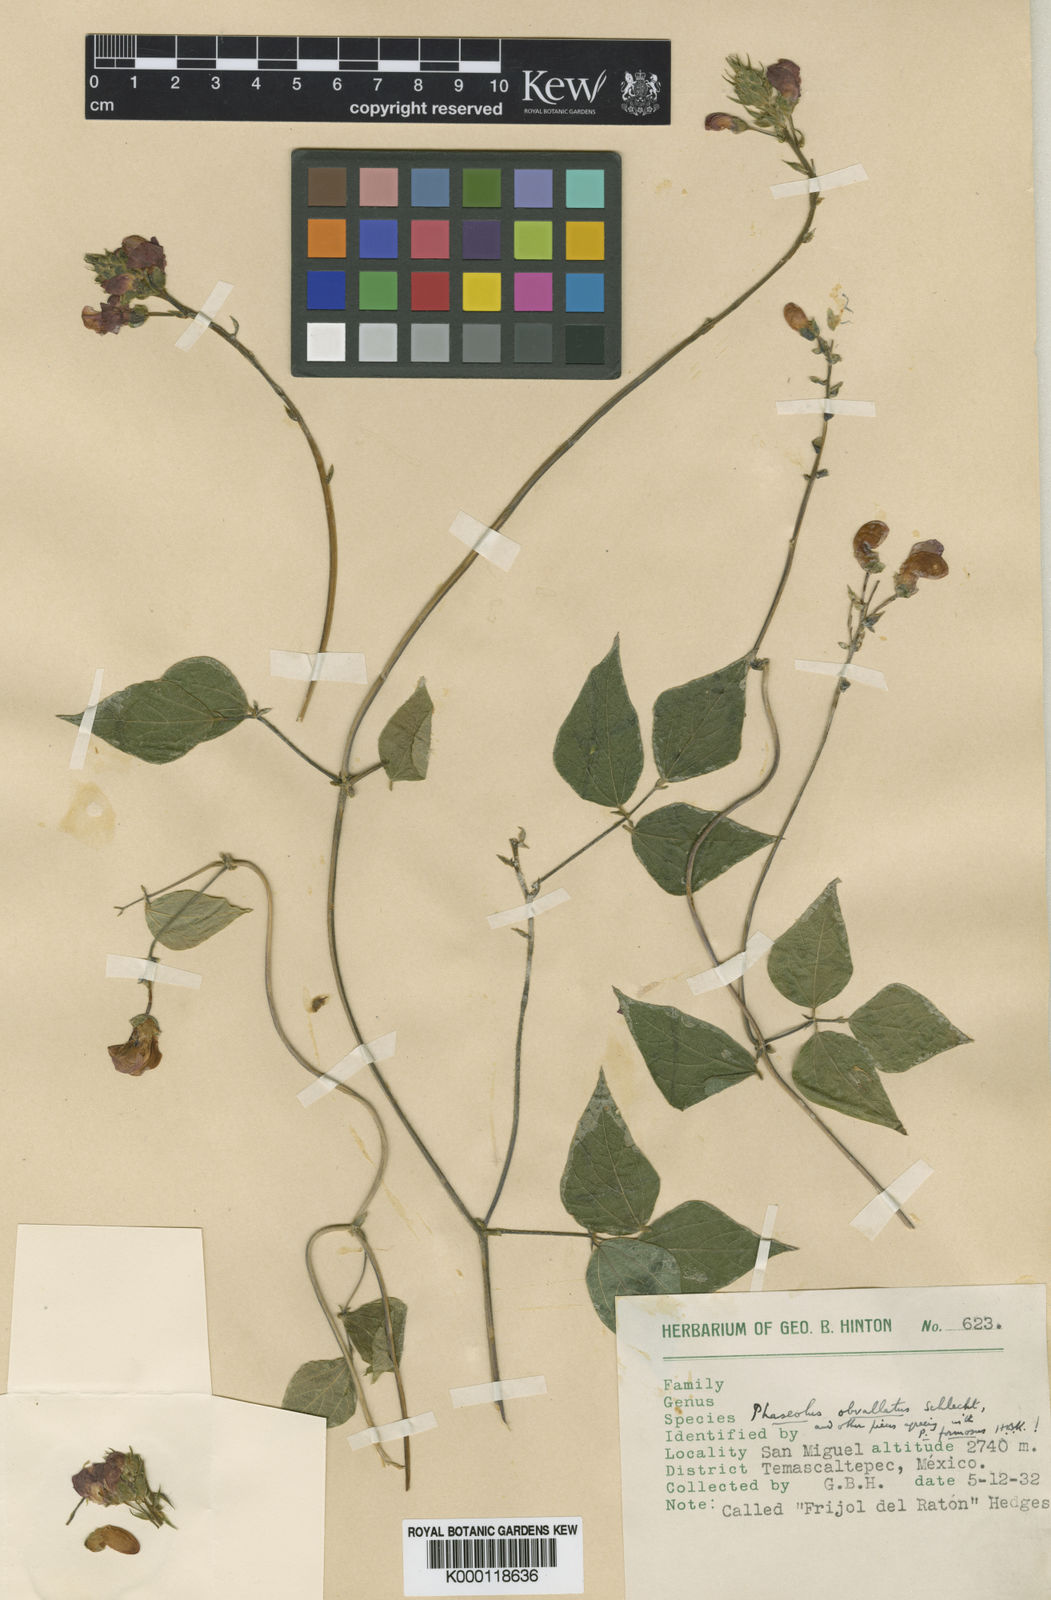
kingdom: Plantae
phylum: Tracheophyta
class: Magnoliopsida
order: Fabales
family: Fabaceae
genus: Phaseolus
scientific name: Phaseolus coccineus
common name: Runner bean
